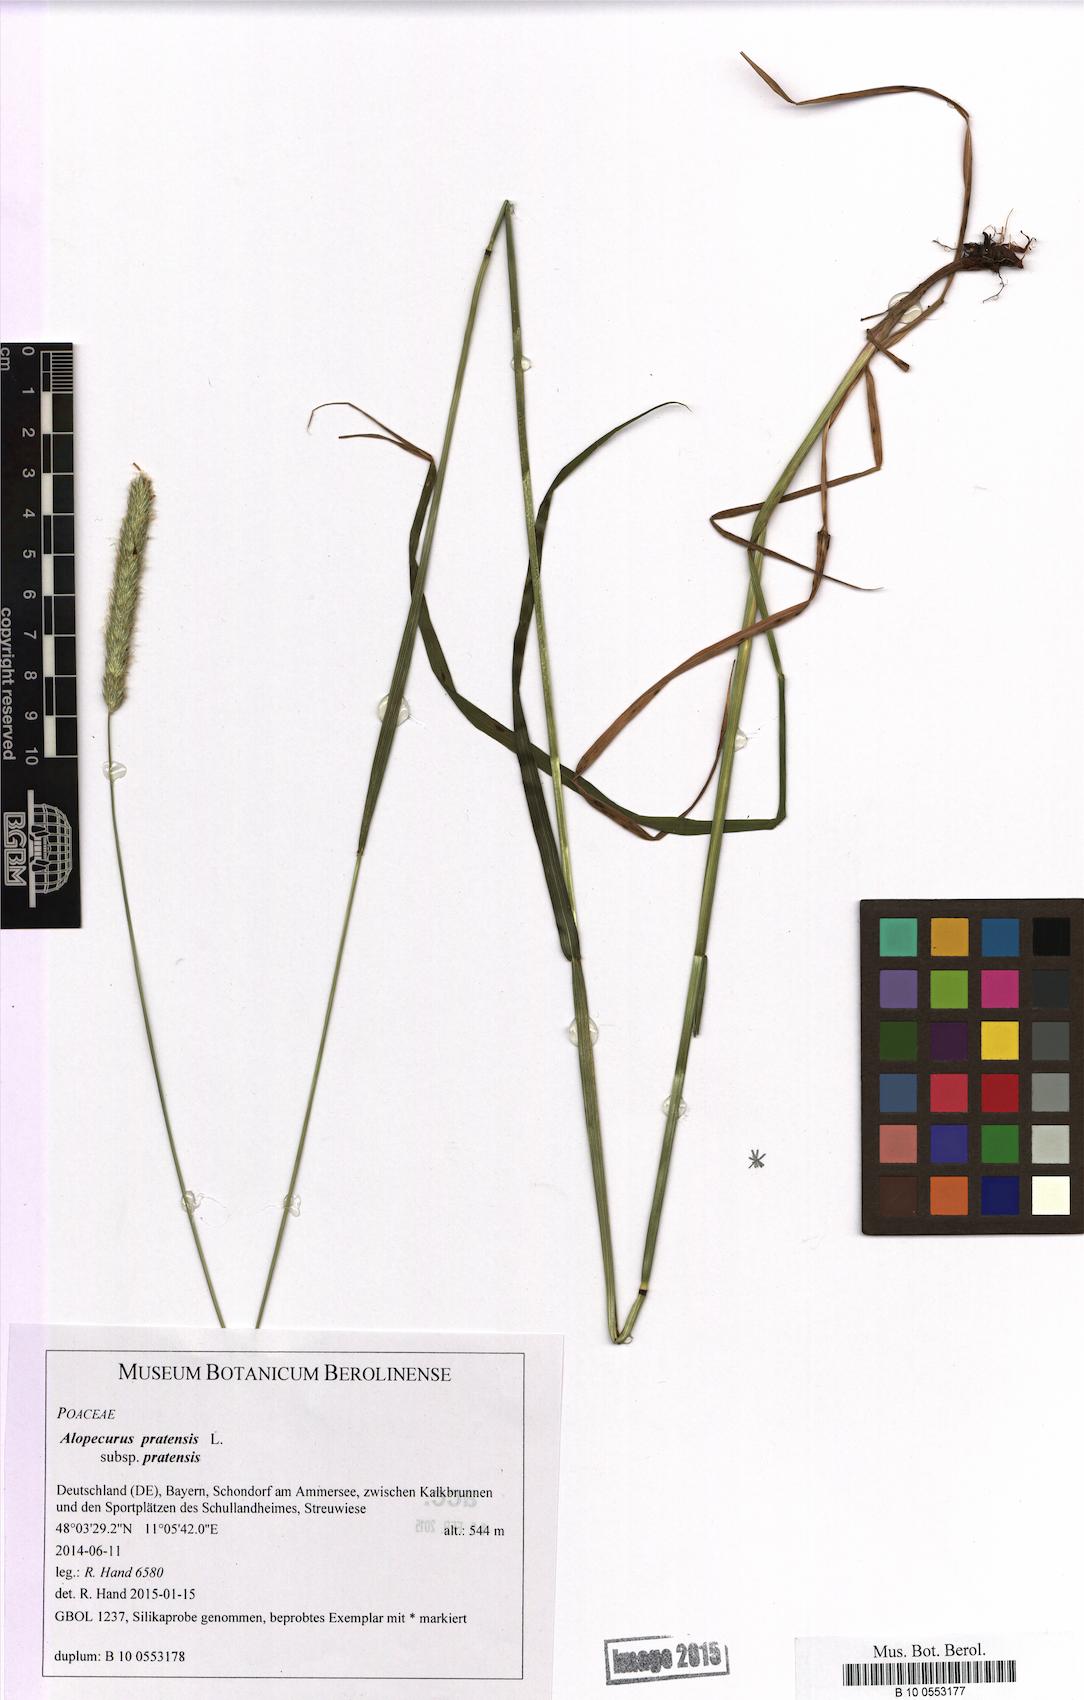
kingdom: Plantae
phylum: Tracheophyta
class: Liliopsida
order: Poales
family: Poaceae
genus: Alopecurus
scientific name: Alopecurus pratensis
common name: Meadow foxtail
